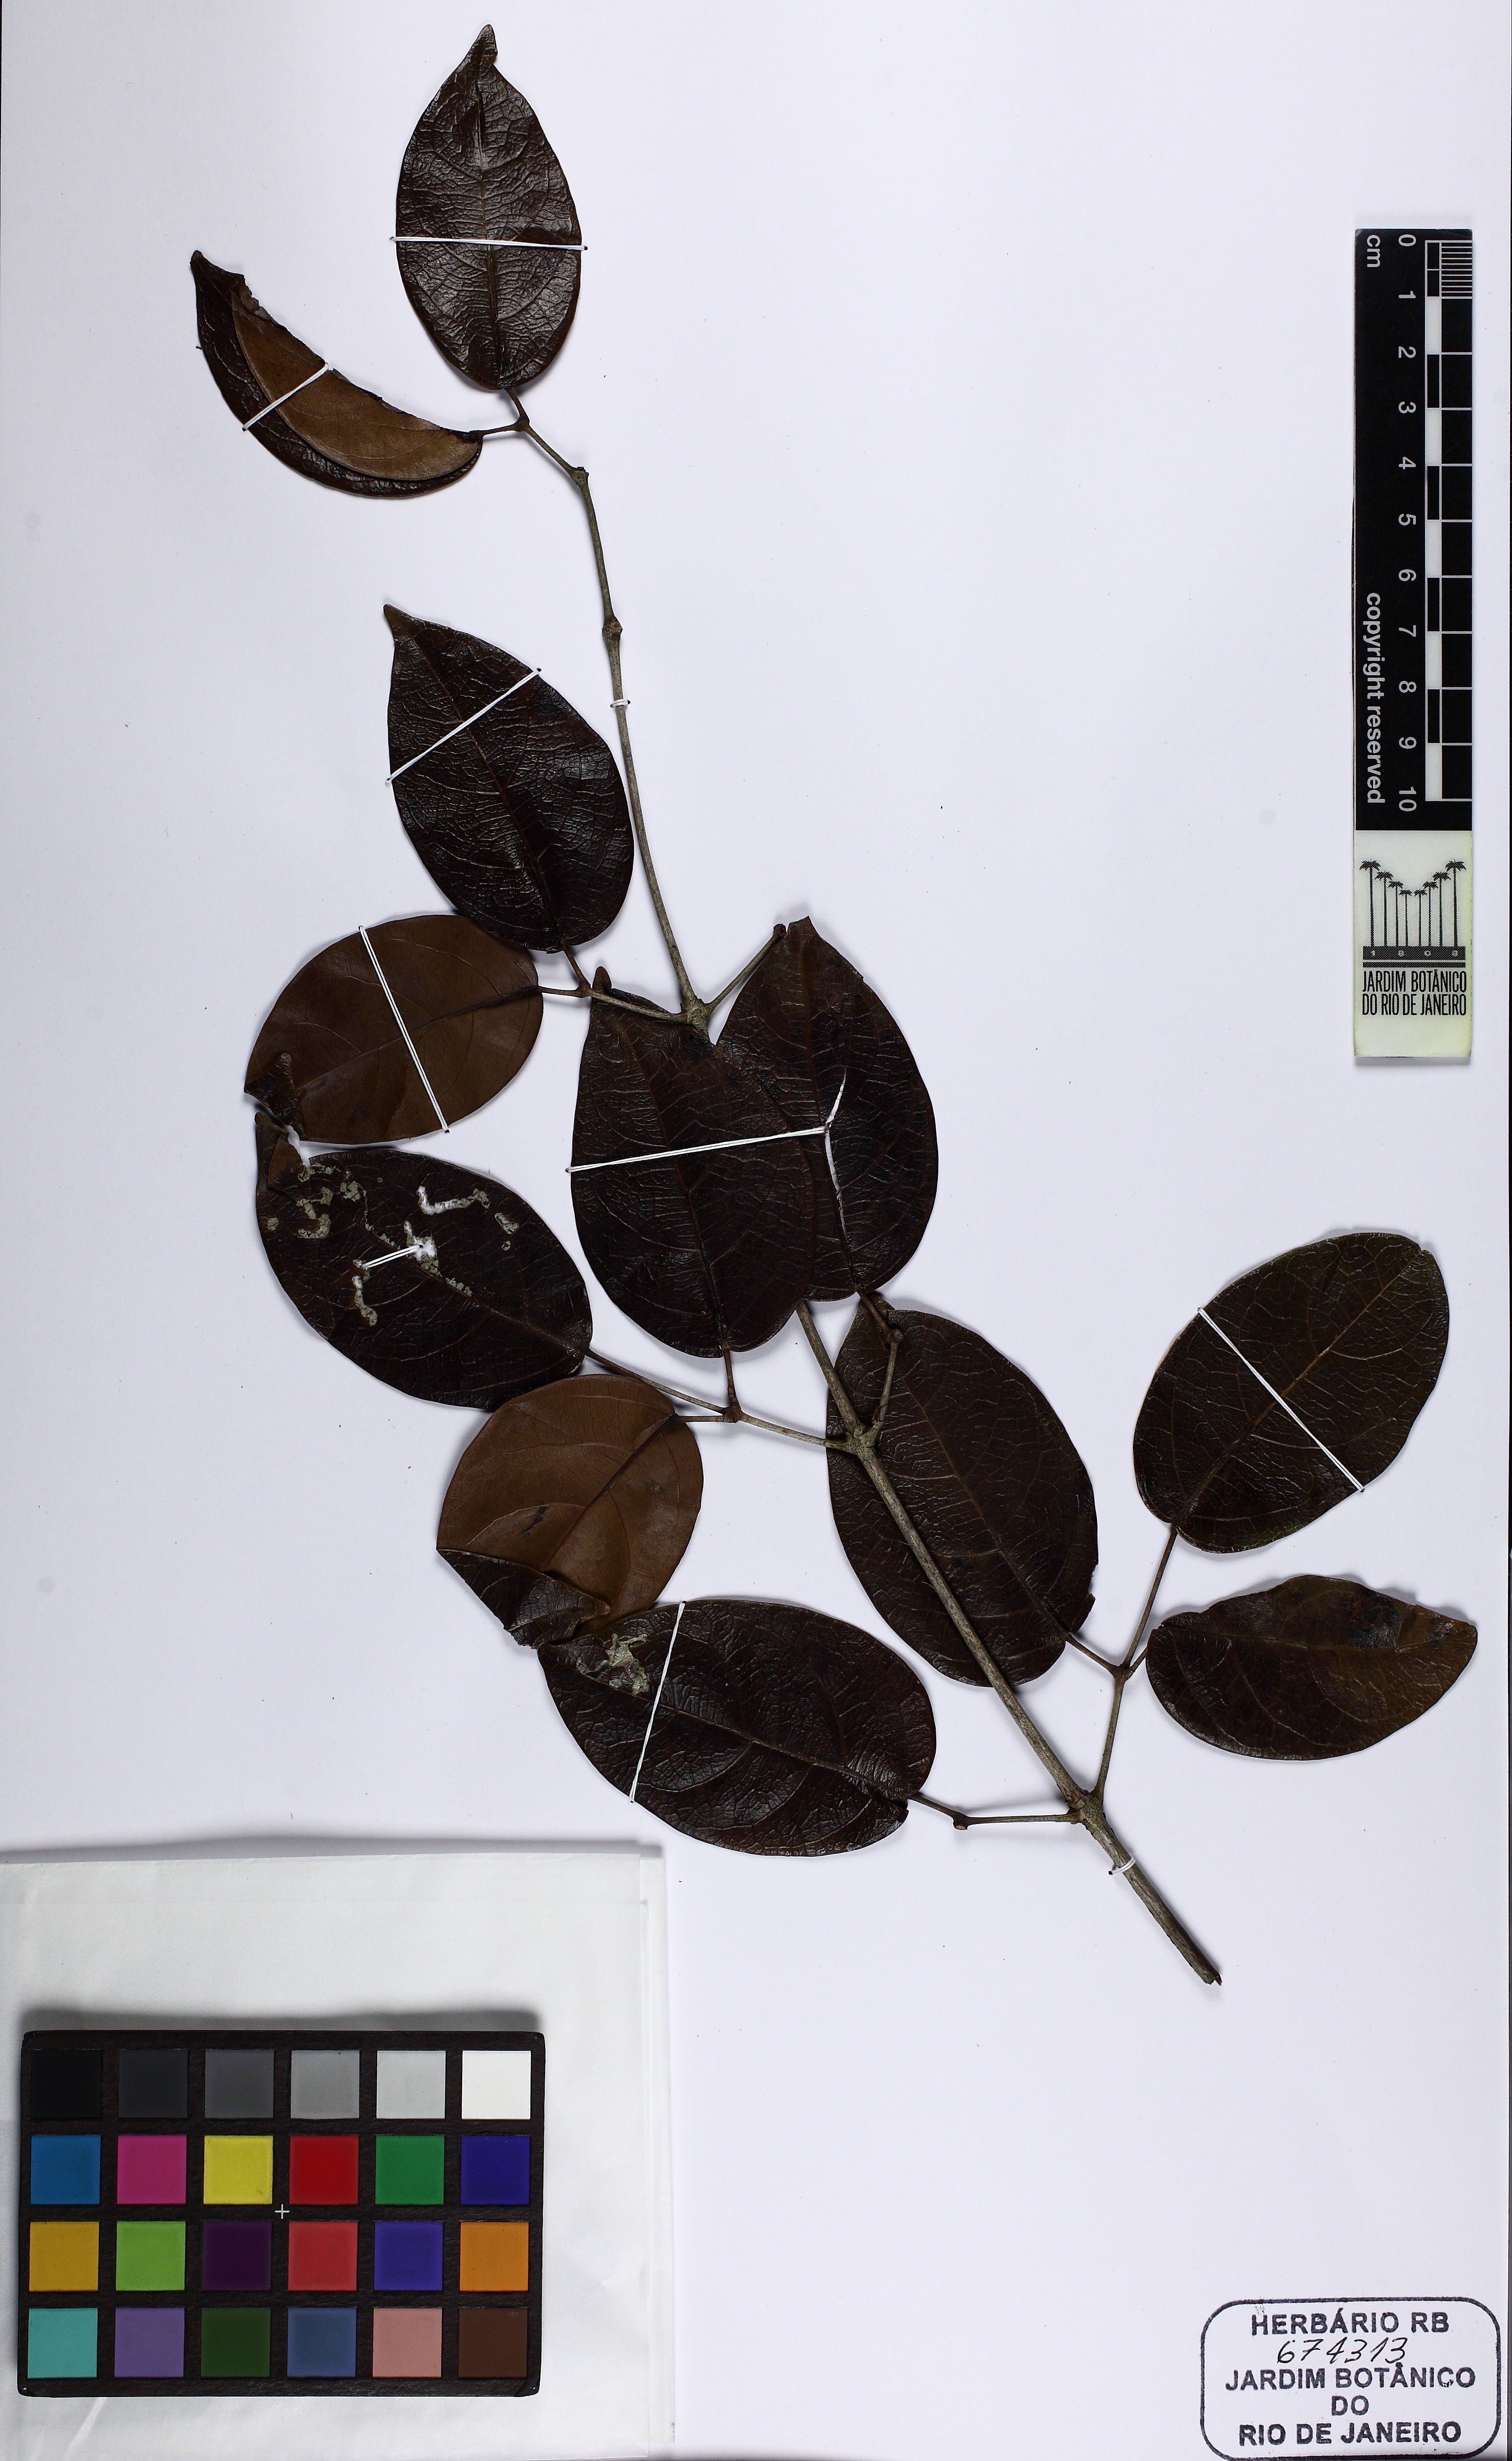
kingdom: Plantae
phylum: Tracheophyta
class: Magnoliopsida
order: Lamiales
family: Bignoniaceae
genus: Adenocalymma
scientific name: Adenocalymma
